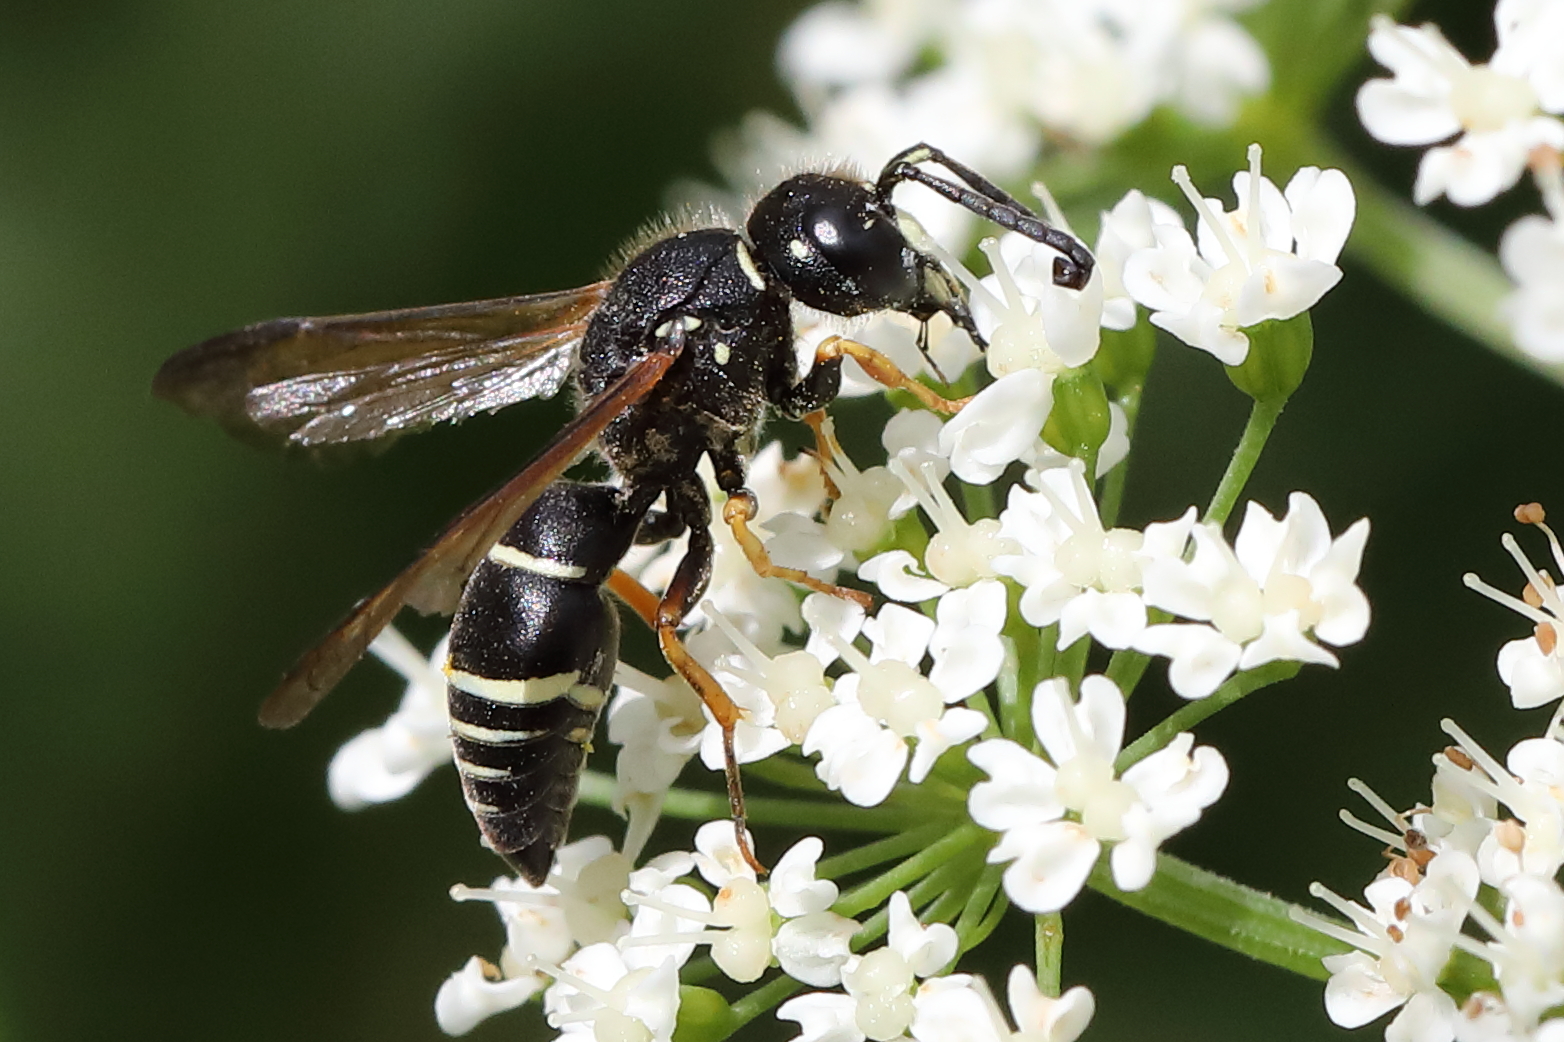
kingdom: Animalia
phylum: Arthropoda
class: Insecta
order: Hymenoptera
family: Eumenidae
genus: Gymnomerus
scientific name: Gymnomerus laevipes
